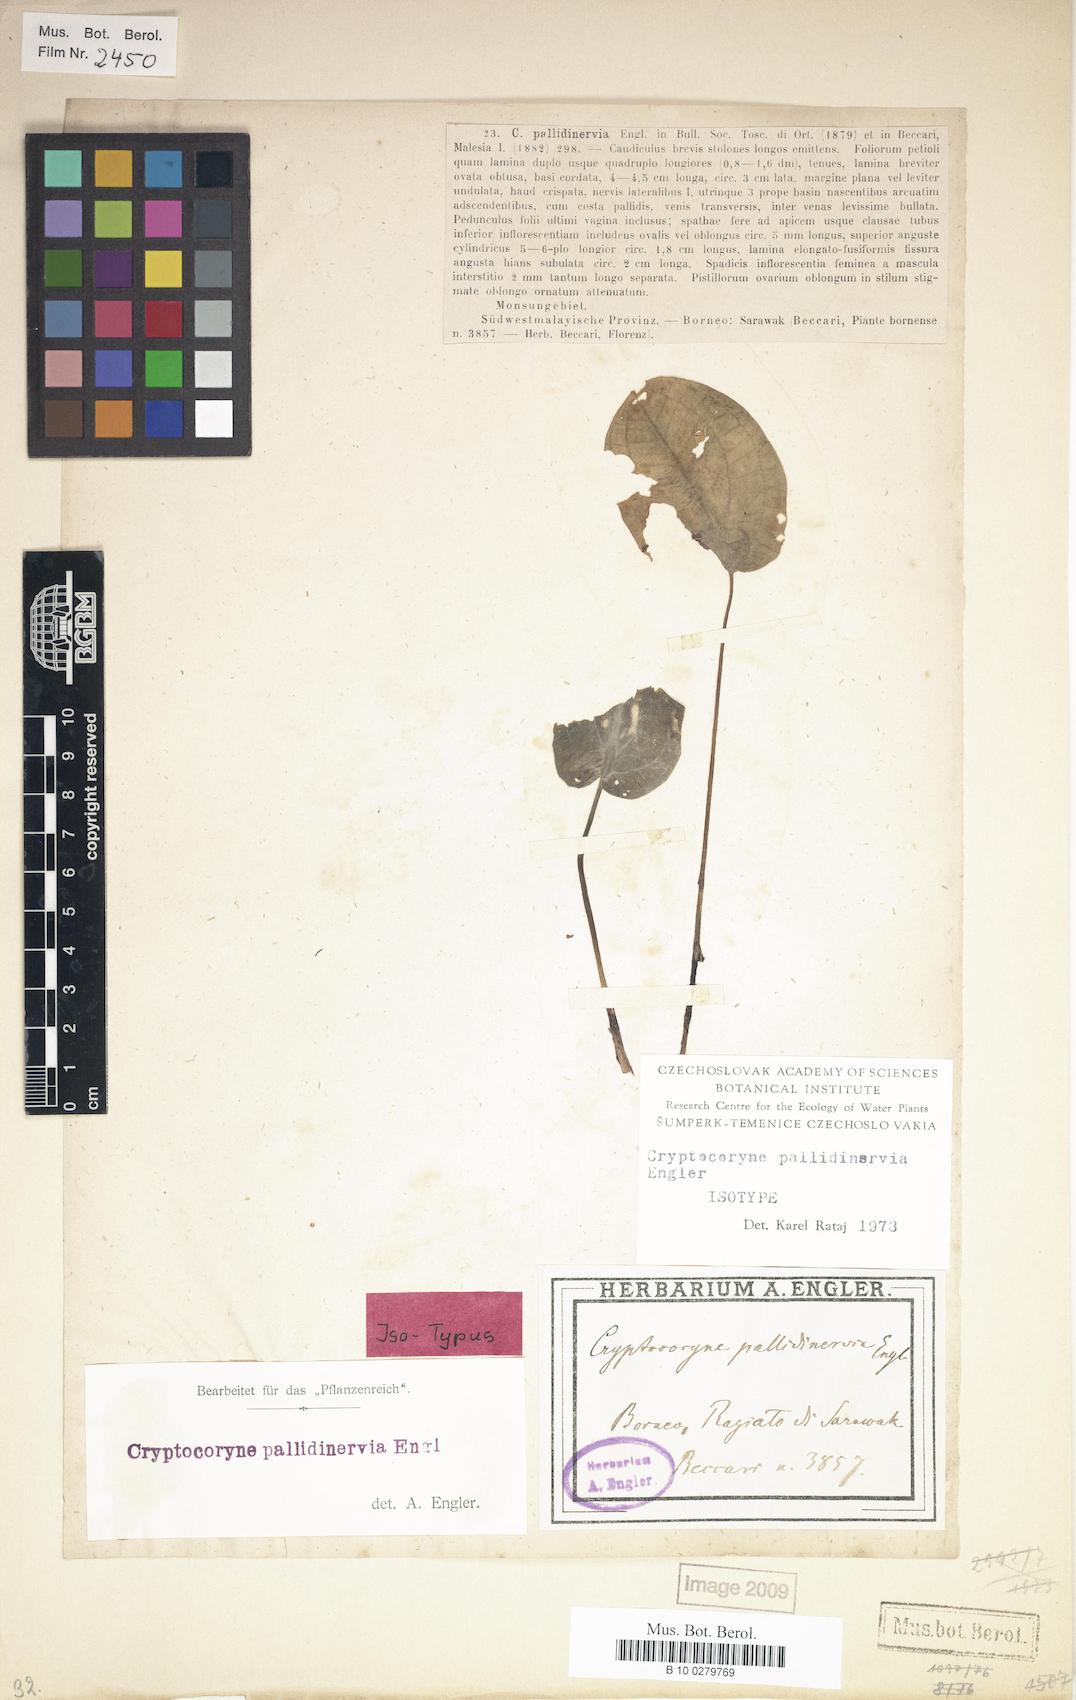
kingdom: Plantae
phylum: Tracheophyta
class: Liliopsida
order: Alismatales
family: Araceae
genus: Cryptocoryne
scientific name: Cryptocoryne pallidinervia
